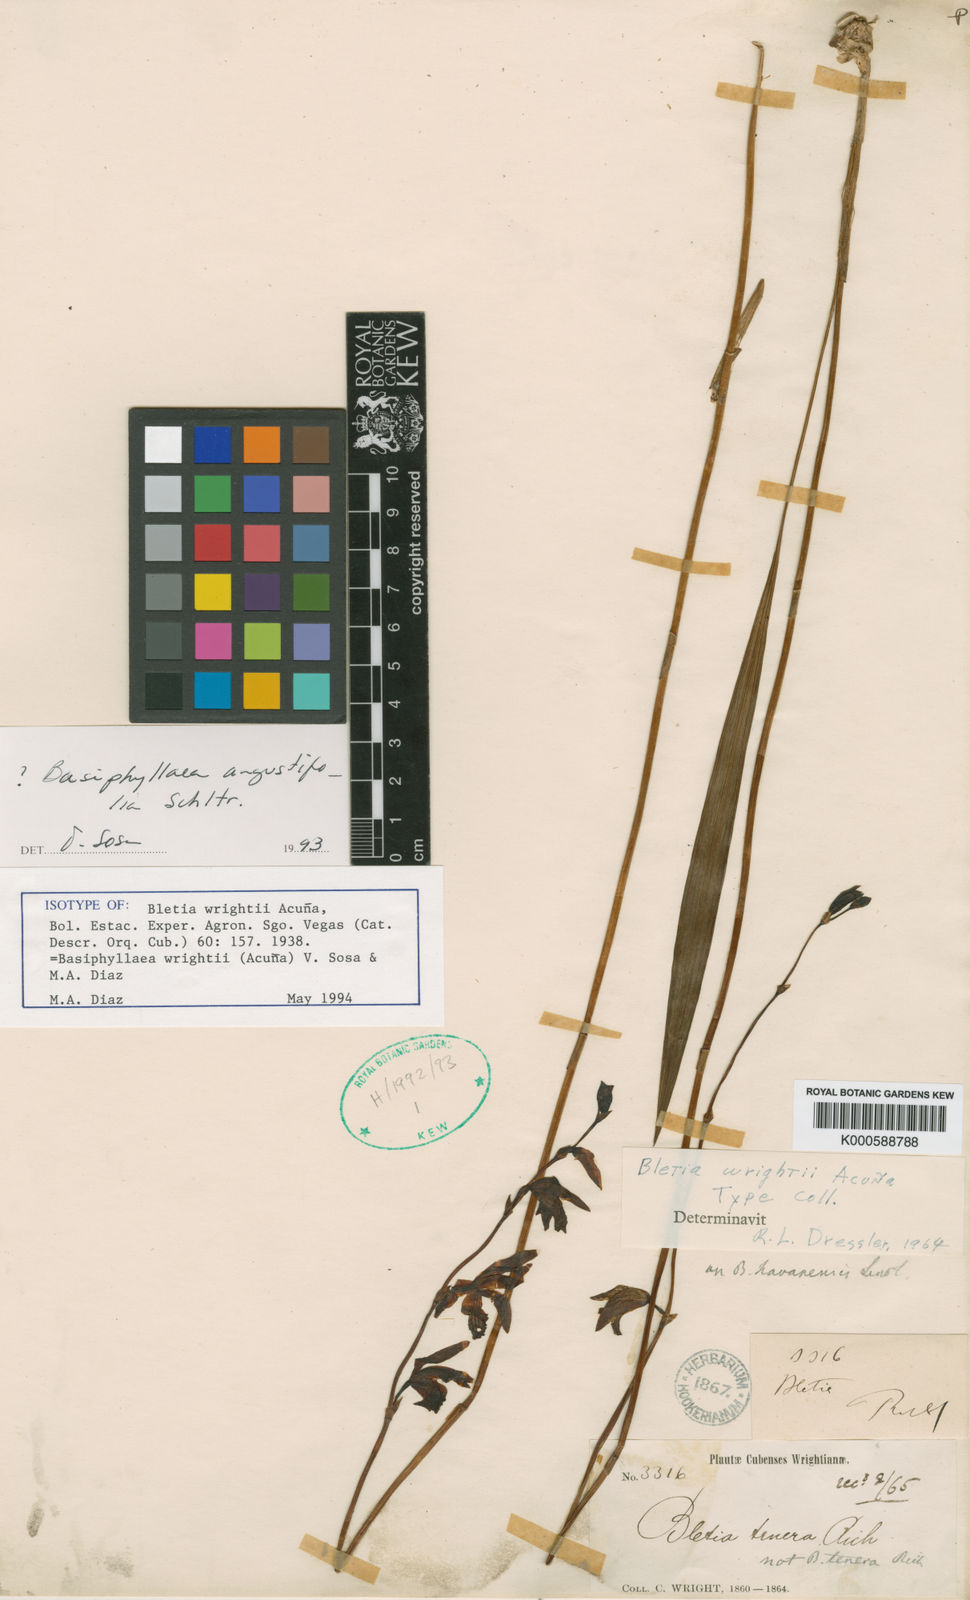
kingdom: Plantae
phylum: Tracheophyta
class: Liliopsida
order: Asparagales
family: Orchidaceae
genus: Bletia
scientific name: Bletia
